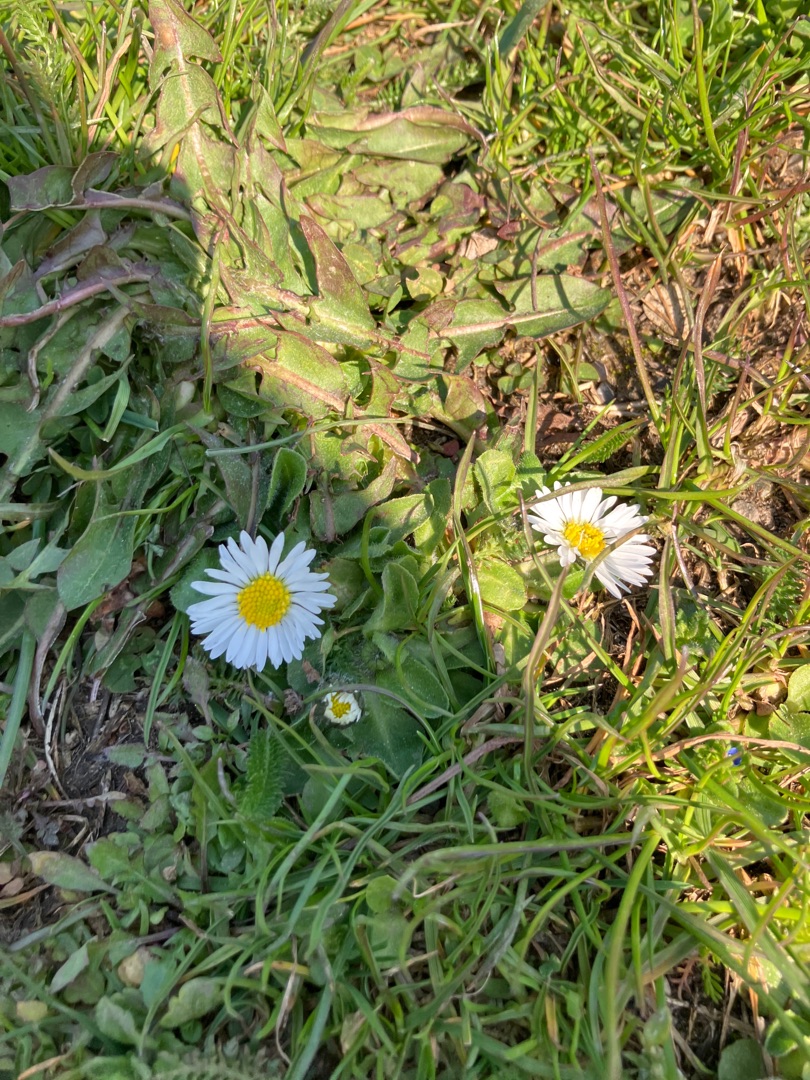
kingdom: Plantae
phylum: Tracheophyta
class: Magnoliopsida
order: Asterales
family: Asteraceae
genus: Bellis
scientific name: Bellis perennis
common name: Tusindfryd
